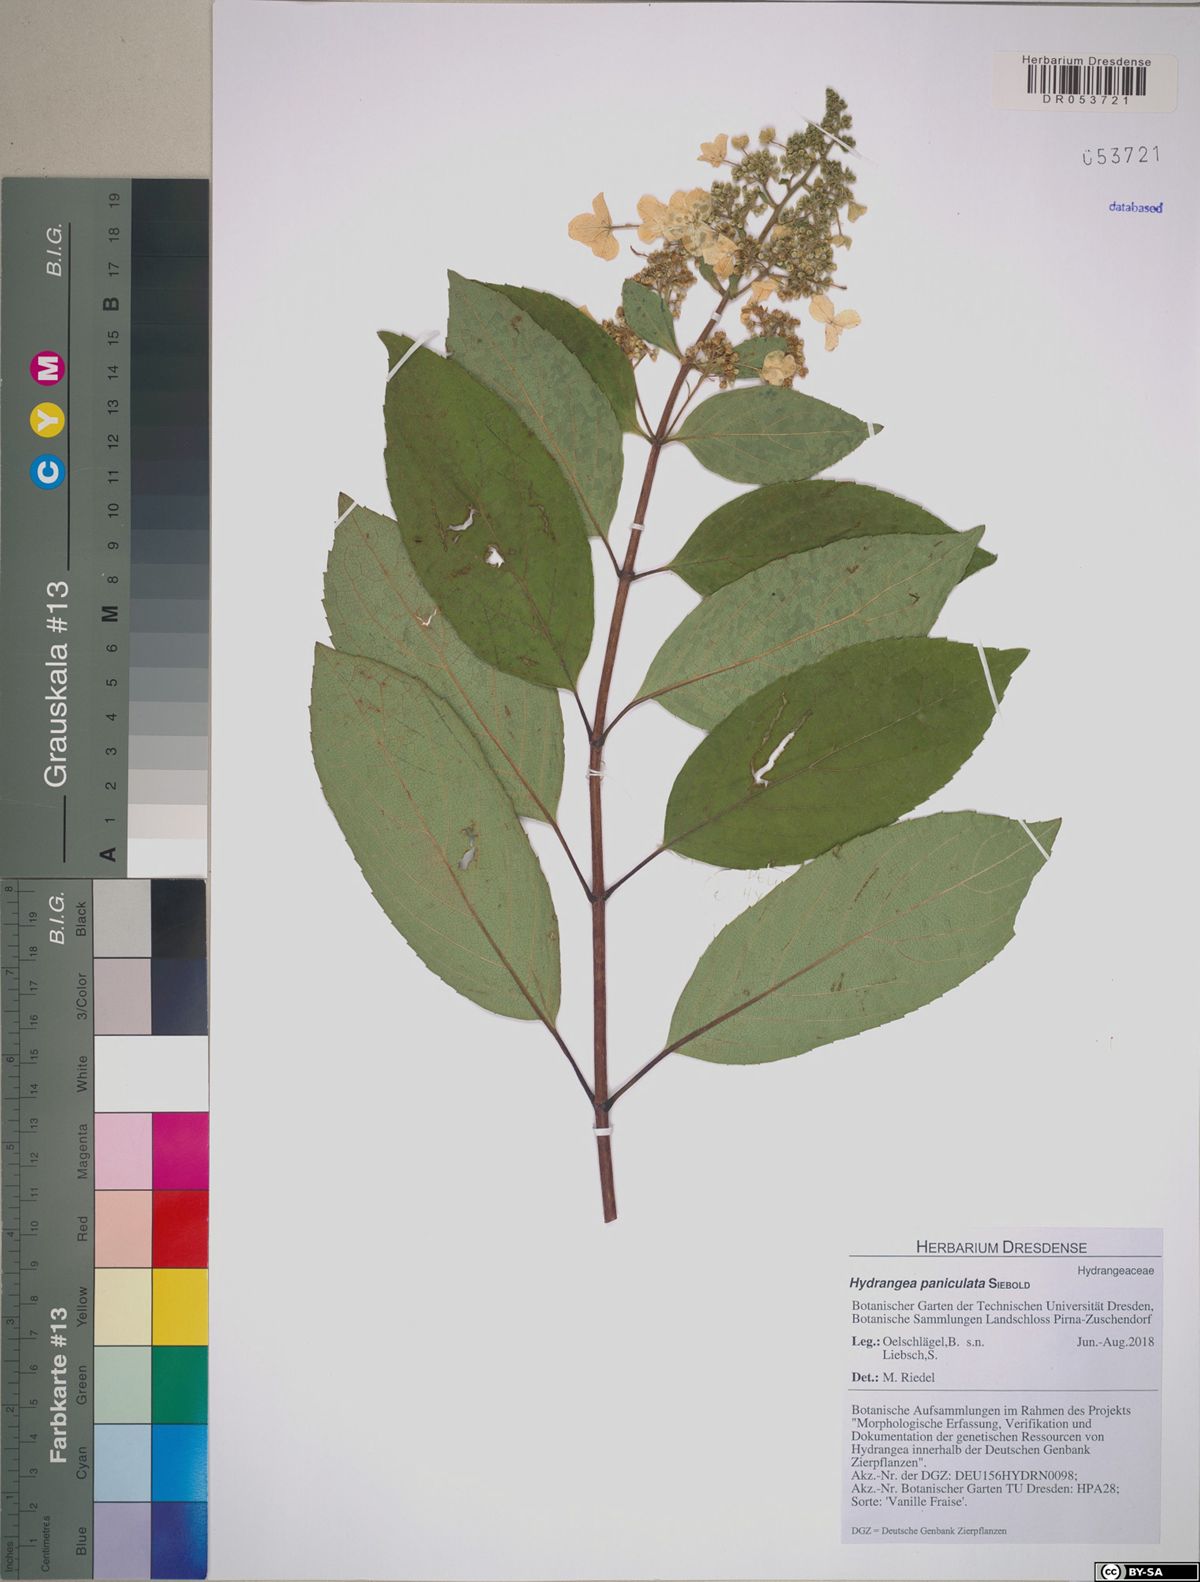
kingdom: Plantae
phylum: Tracheophyta
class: Magnoliopsida
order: Cornales
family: Hydrangeaceae
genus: Hydrangea
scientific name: Hydrangea paniculata
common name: Panicled hydrangea
